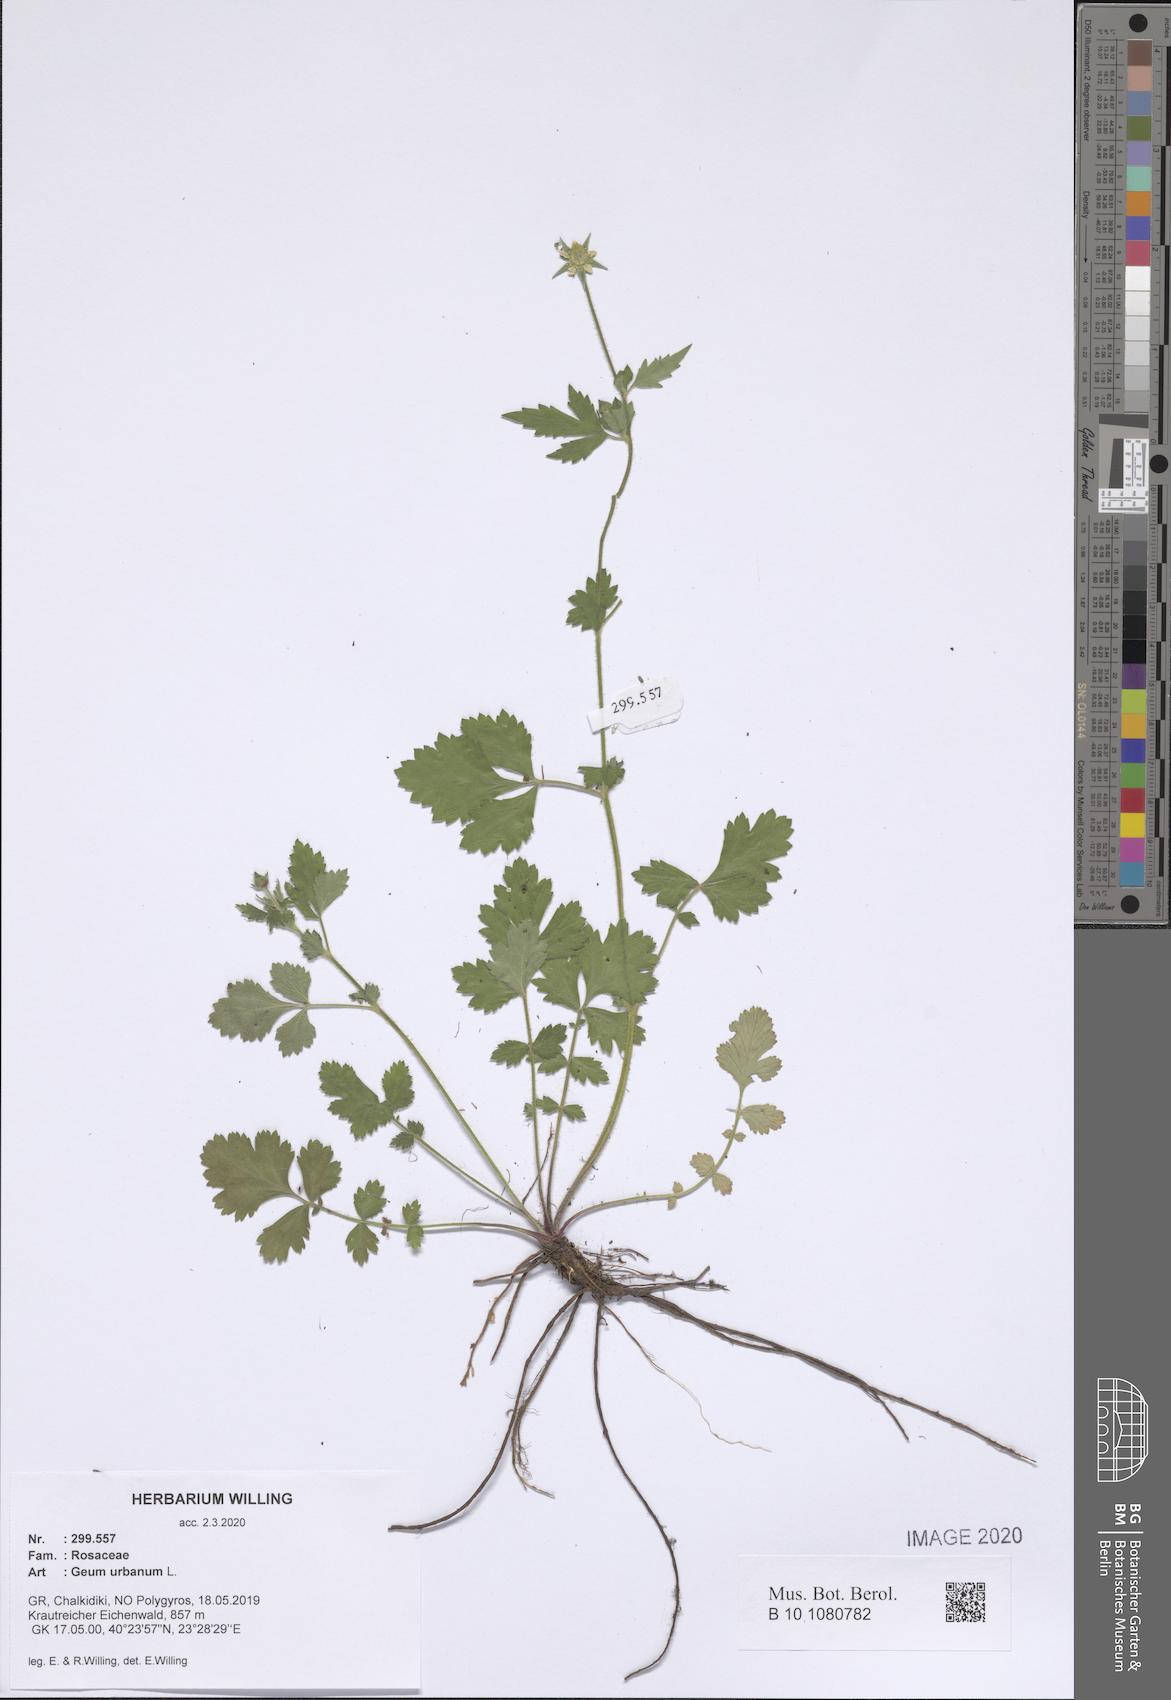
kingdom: Plantae
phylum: Tracheophyta
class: Magnoliopsida
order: Rosales
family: Rosaceae
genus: Geum
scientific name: Geum urbanum
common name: Wood avens
